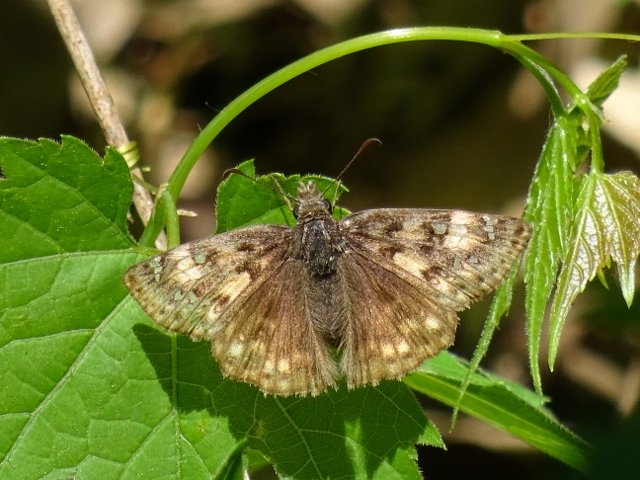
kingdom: Animalia
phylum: Arthropoda
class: Insecta
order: Lepidoptera
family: Hesperiidae
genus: Gesta
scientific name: Gesta
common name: Juvenal's Duskywing
